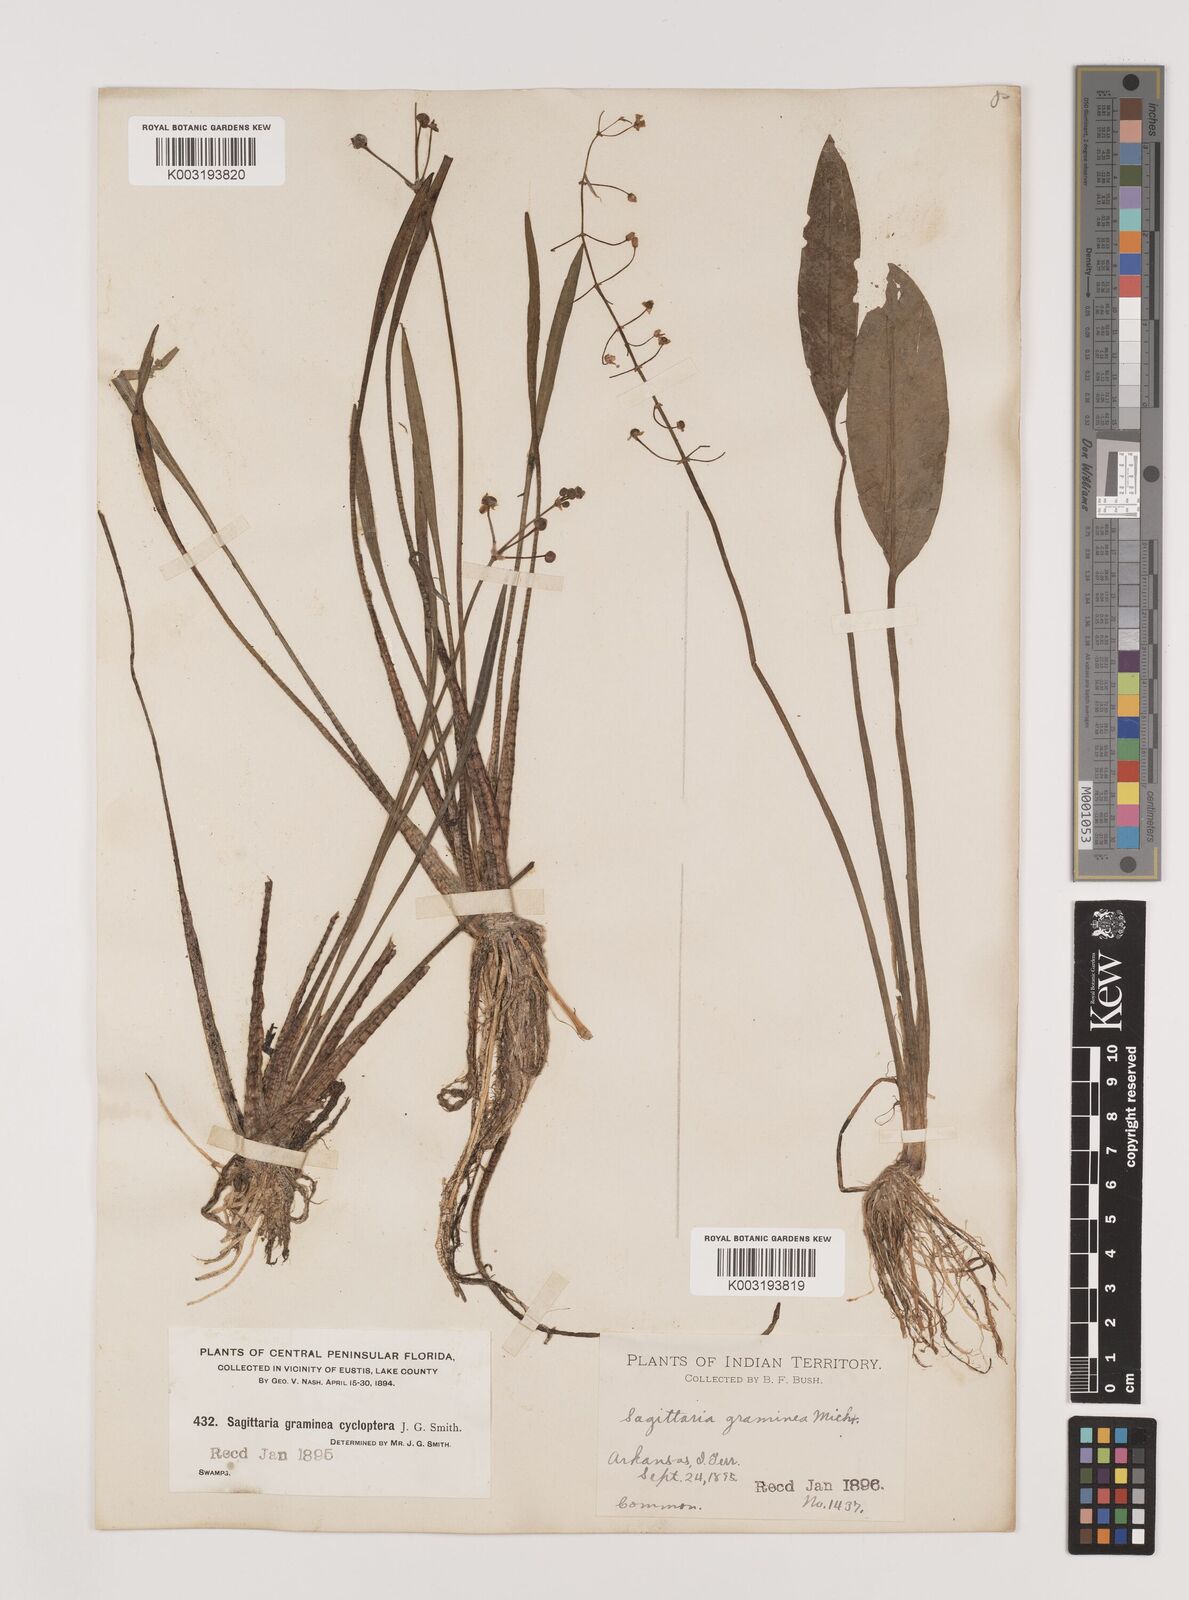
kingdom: Plantae
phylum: Tracheophyta
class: Liliopsida
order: Alismatales
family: Alismataceae
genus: Sagittaria
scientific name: Sagittaria graminea
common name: Grass-leaved arrowhead
